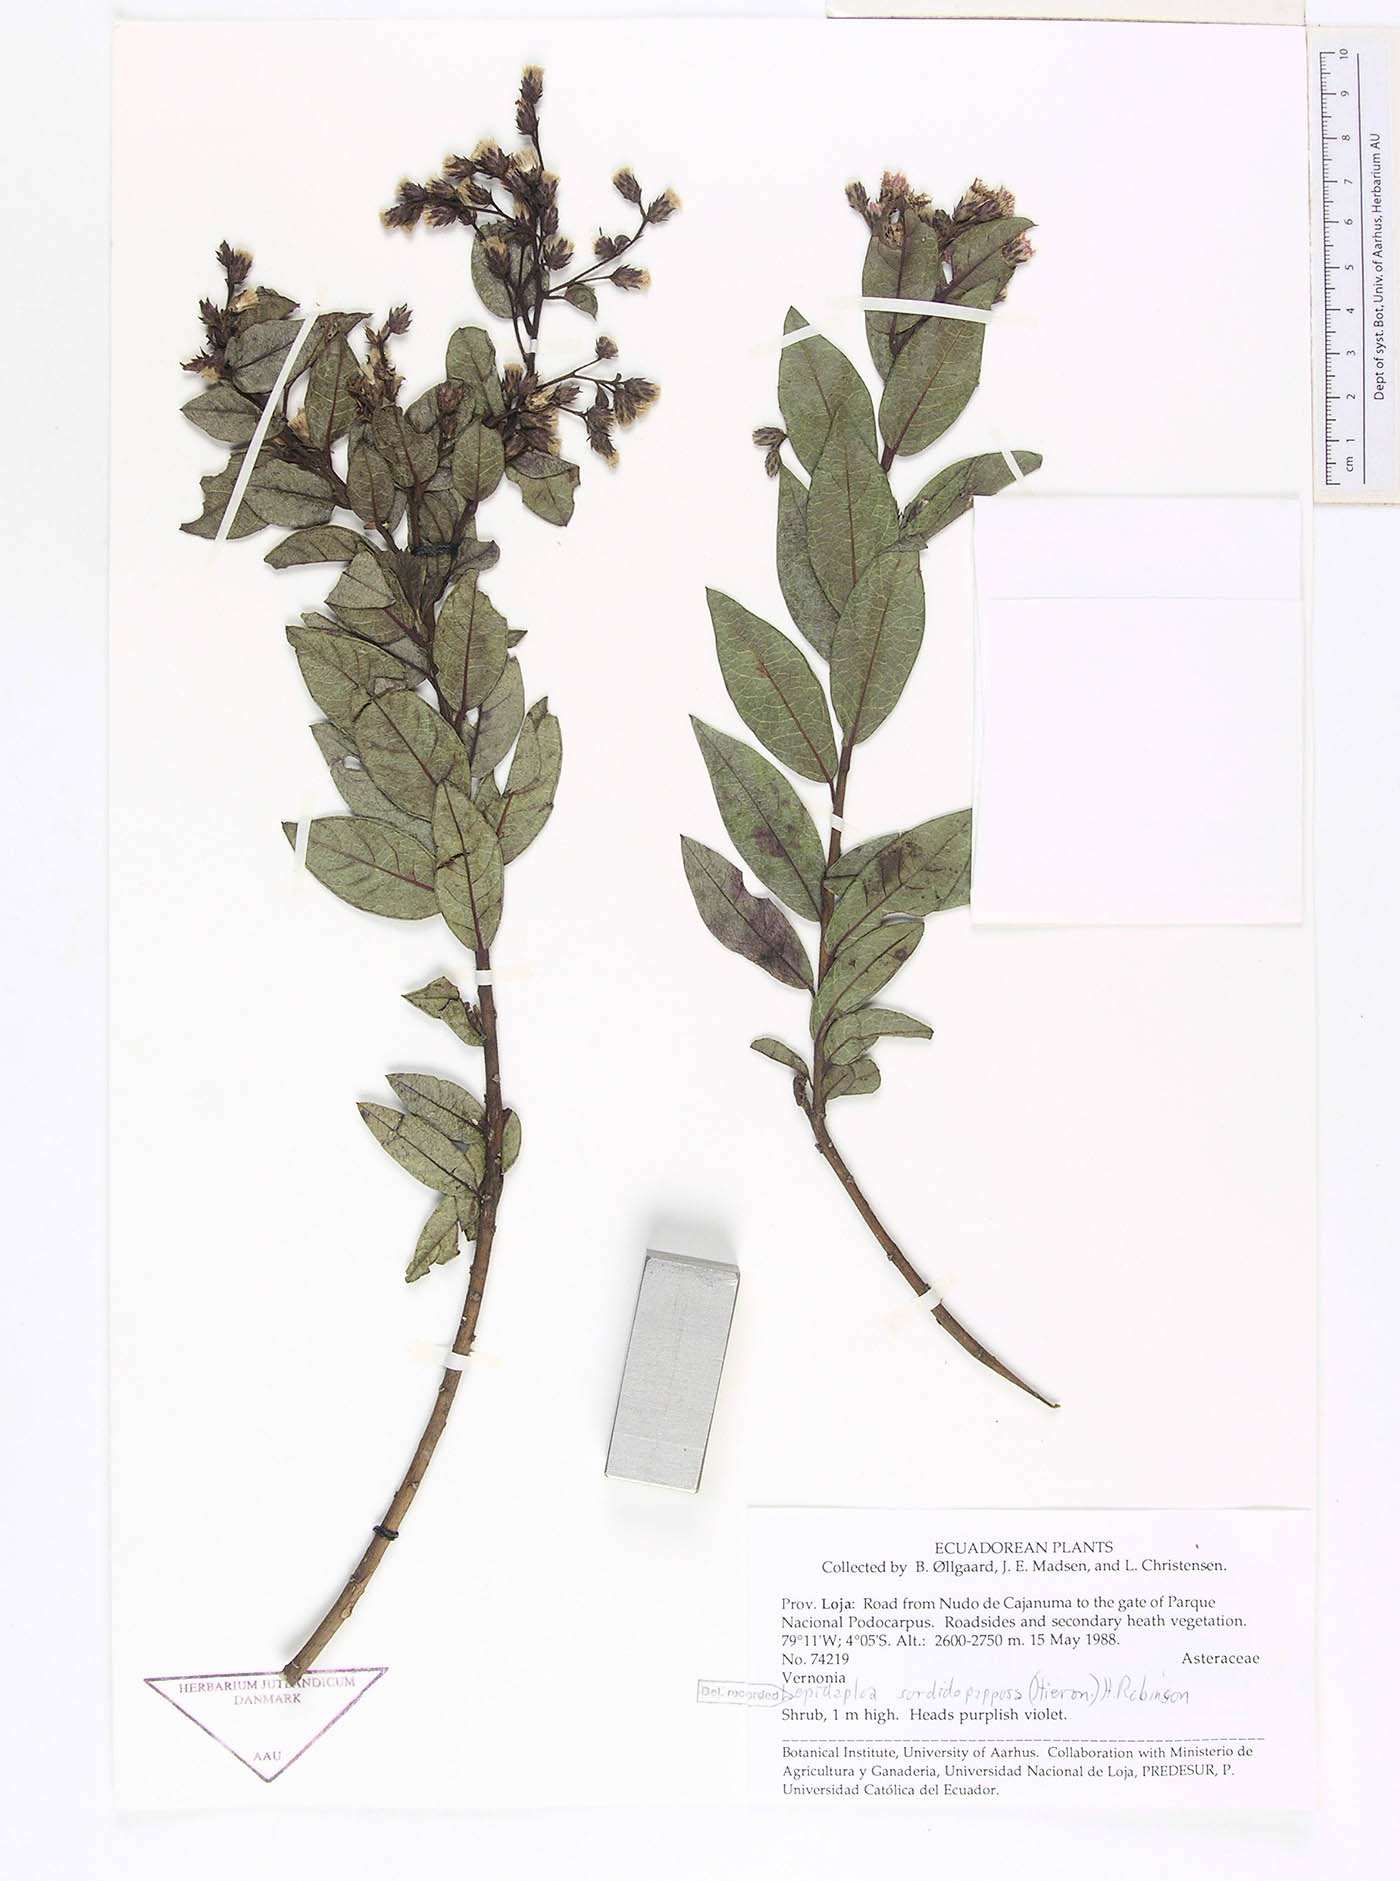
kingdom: Plantae
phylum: Tracheophyta
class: Magnoliopsida
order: Asterales
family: Asteraceae
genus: Lepidaploa
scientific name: Lepidaploa sordidopapposa
